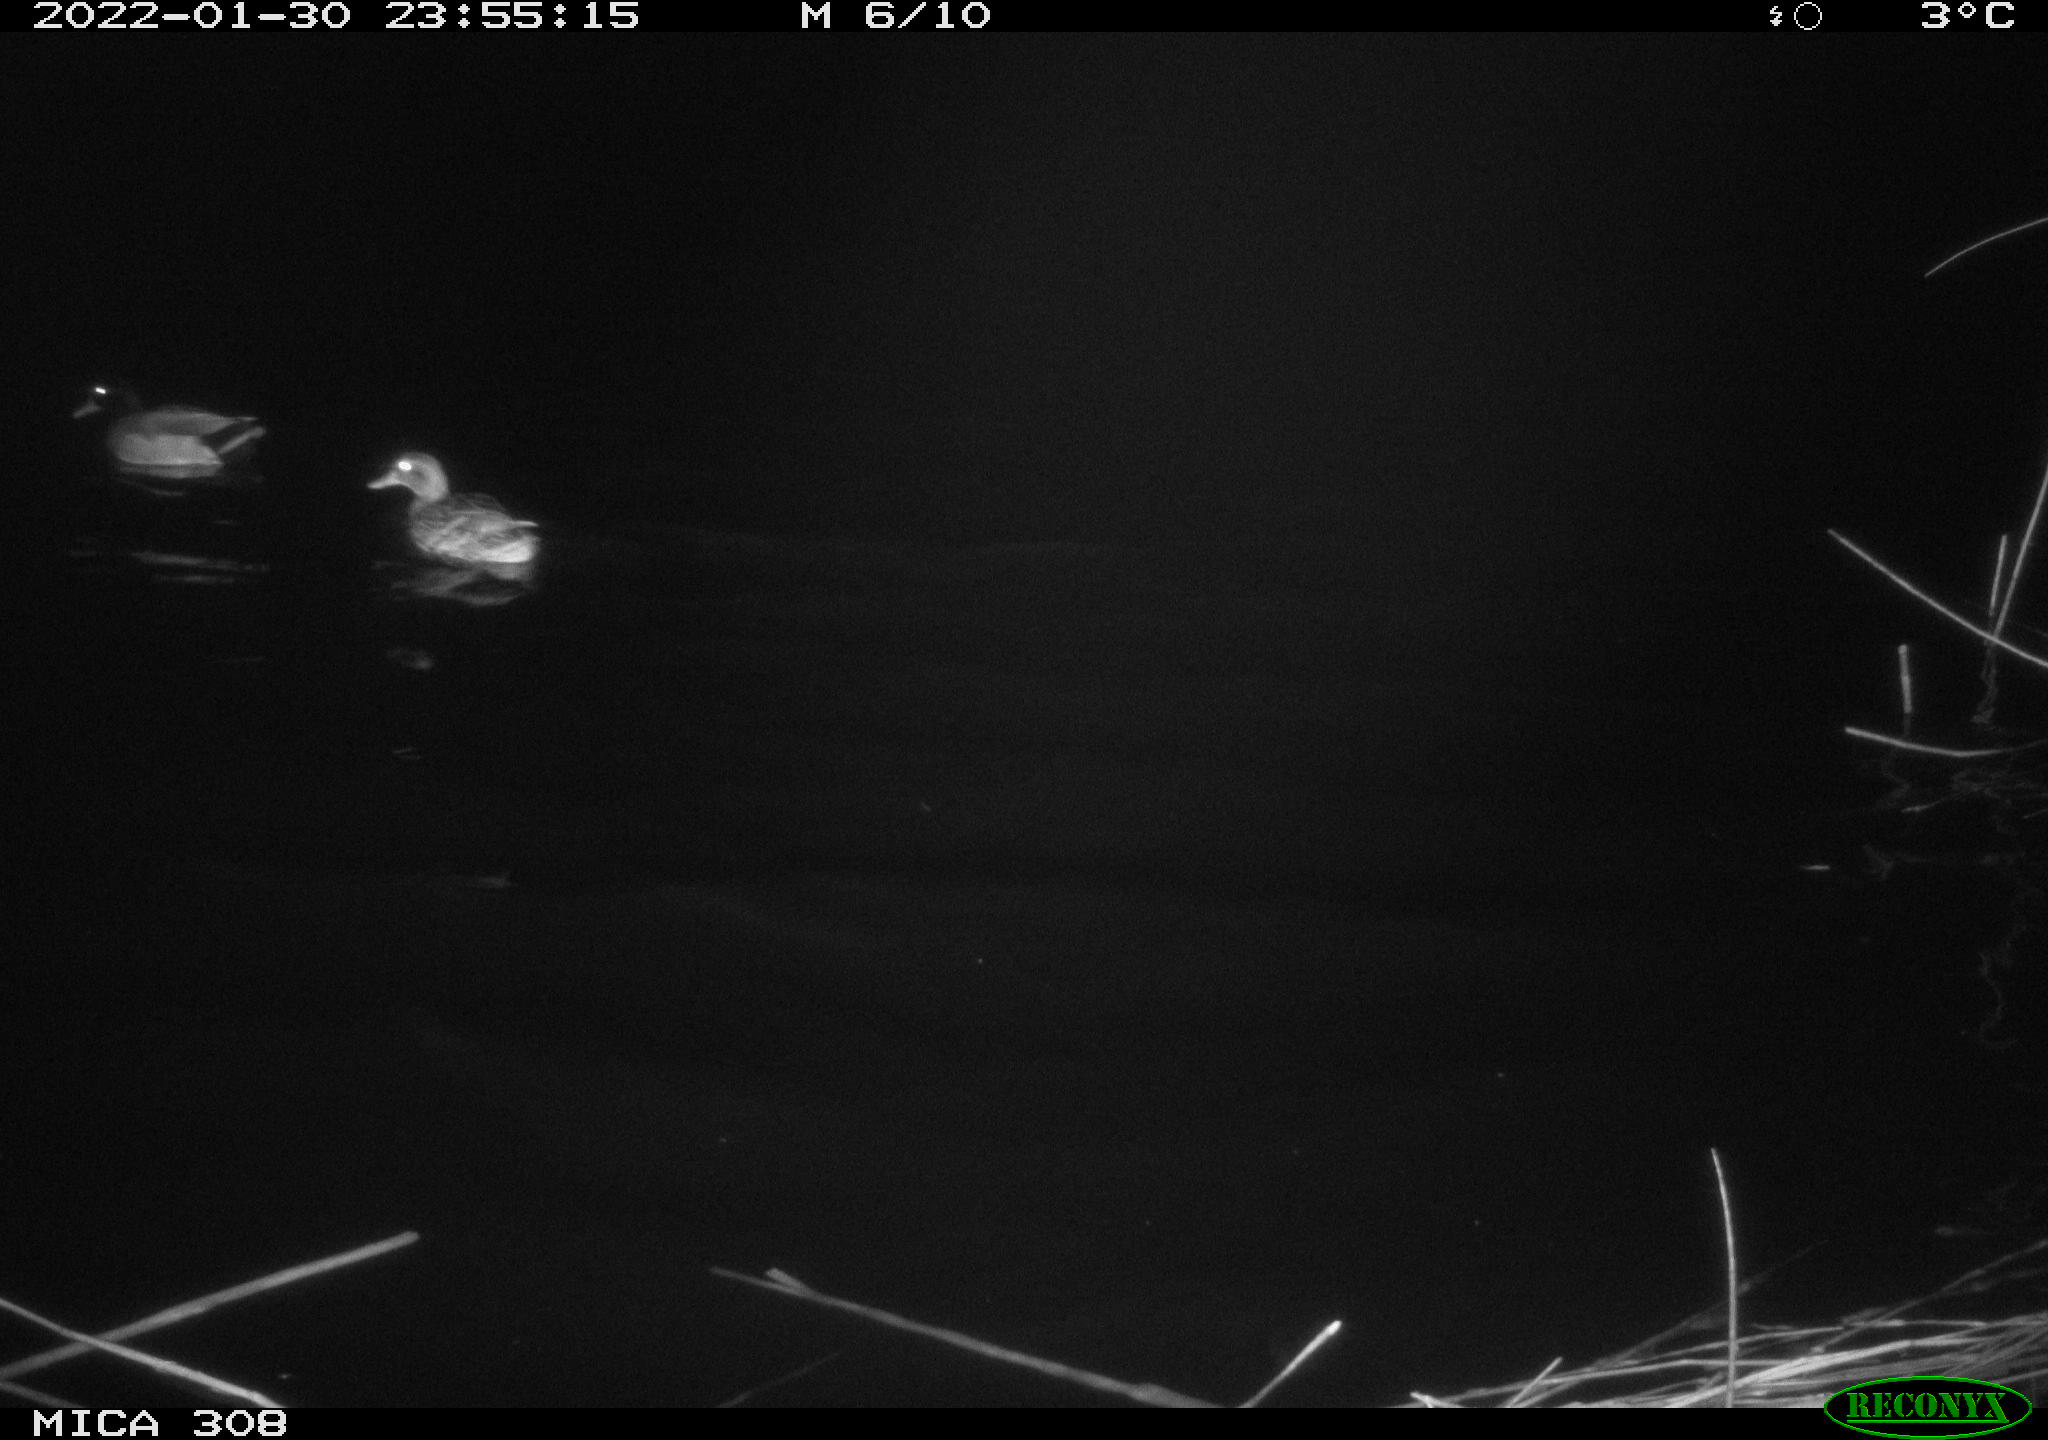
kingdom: Animalia
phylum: Chordata
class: Aves
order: Anseriformes
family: Anatidae
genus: Anas
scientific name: Anas
